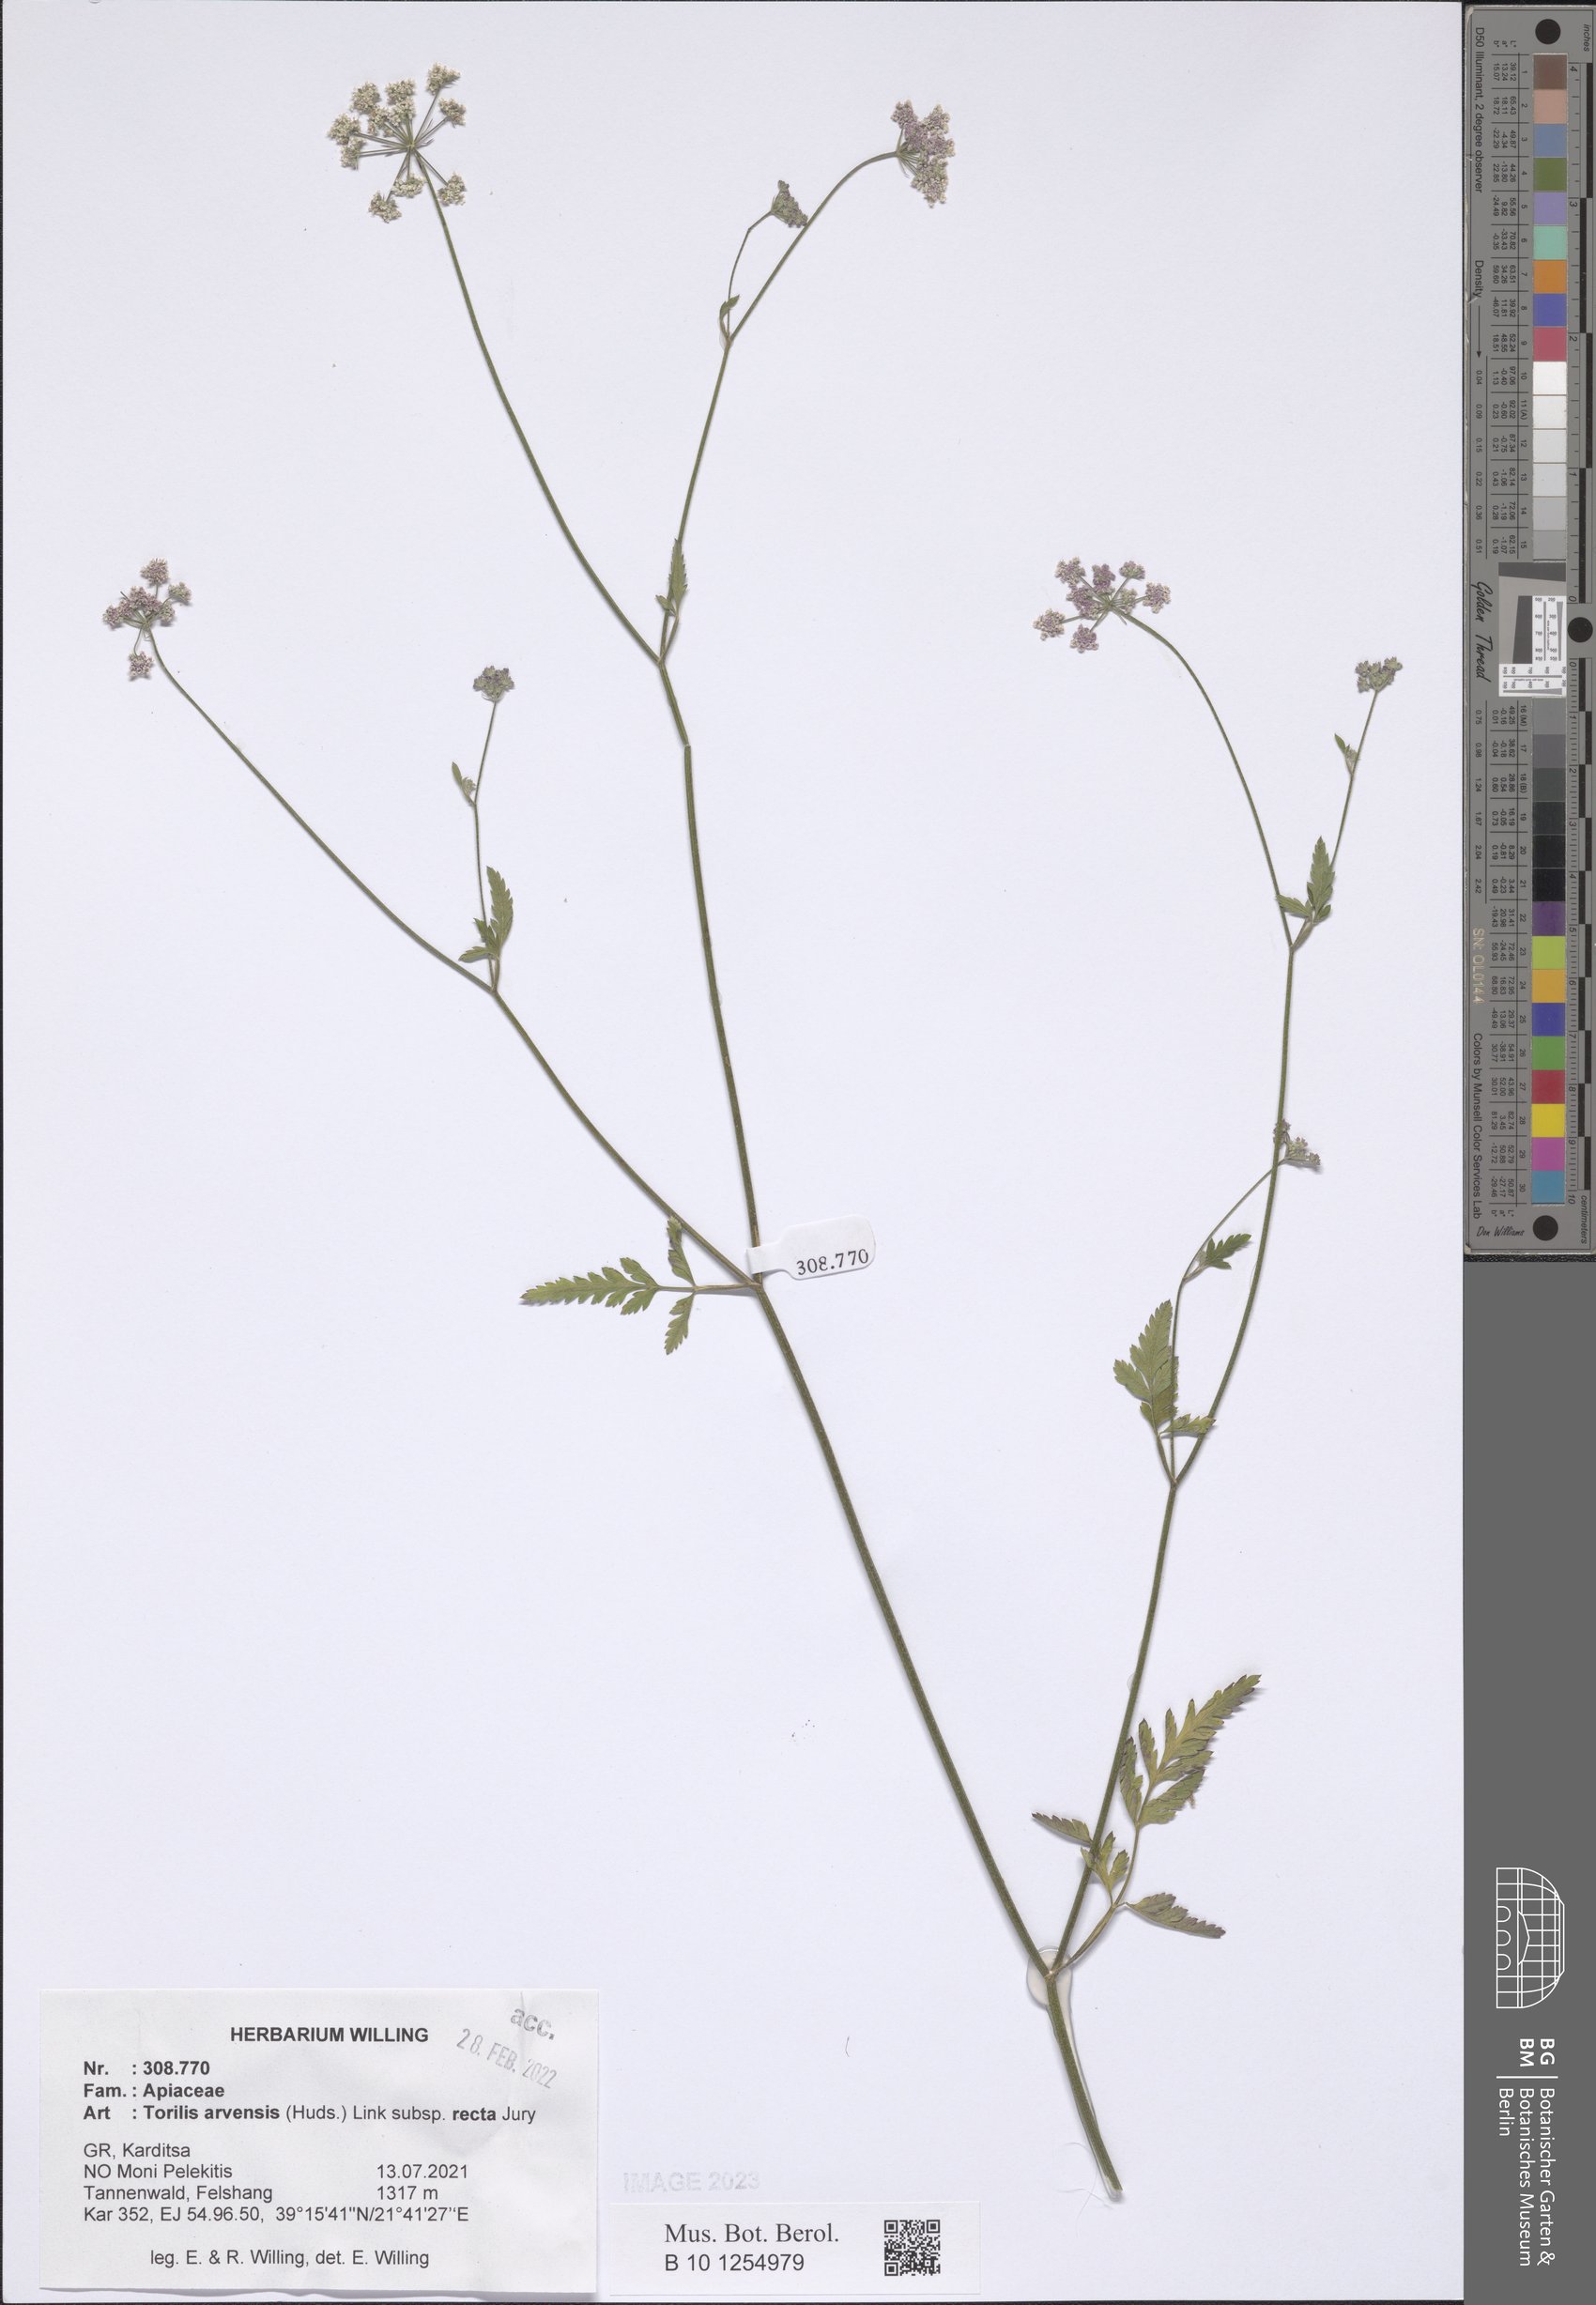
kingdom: Plantae
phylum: Tracheophyta
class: Magnoliopsida
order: Apiales
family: Apiaceae
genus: Torilis
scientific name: Torilis arvensis
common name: Spreading hedge-parsley
